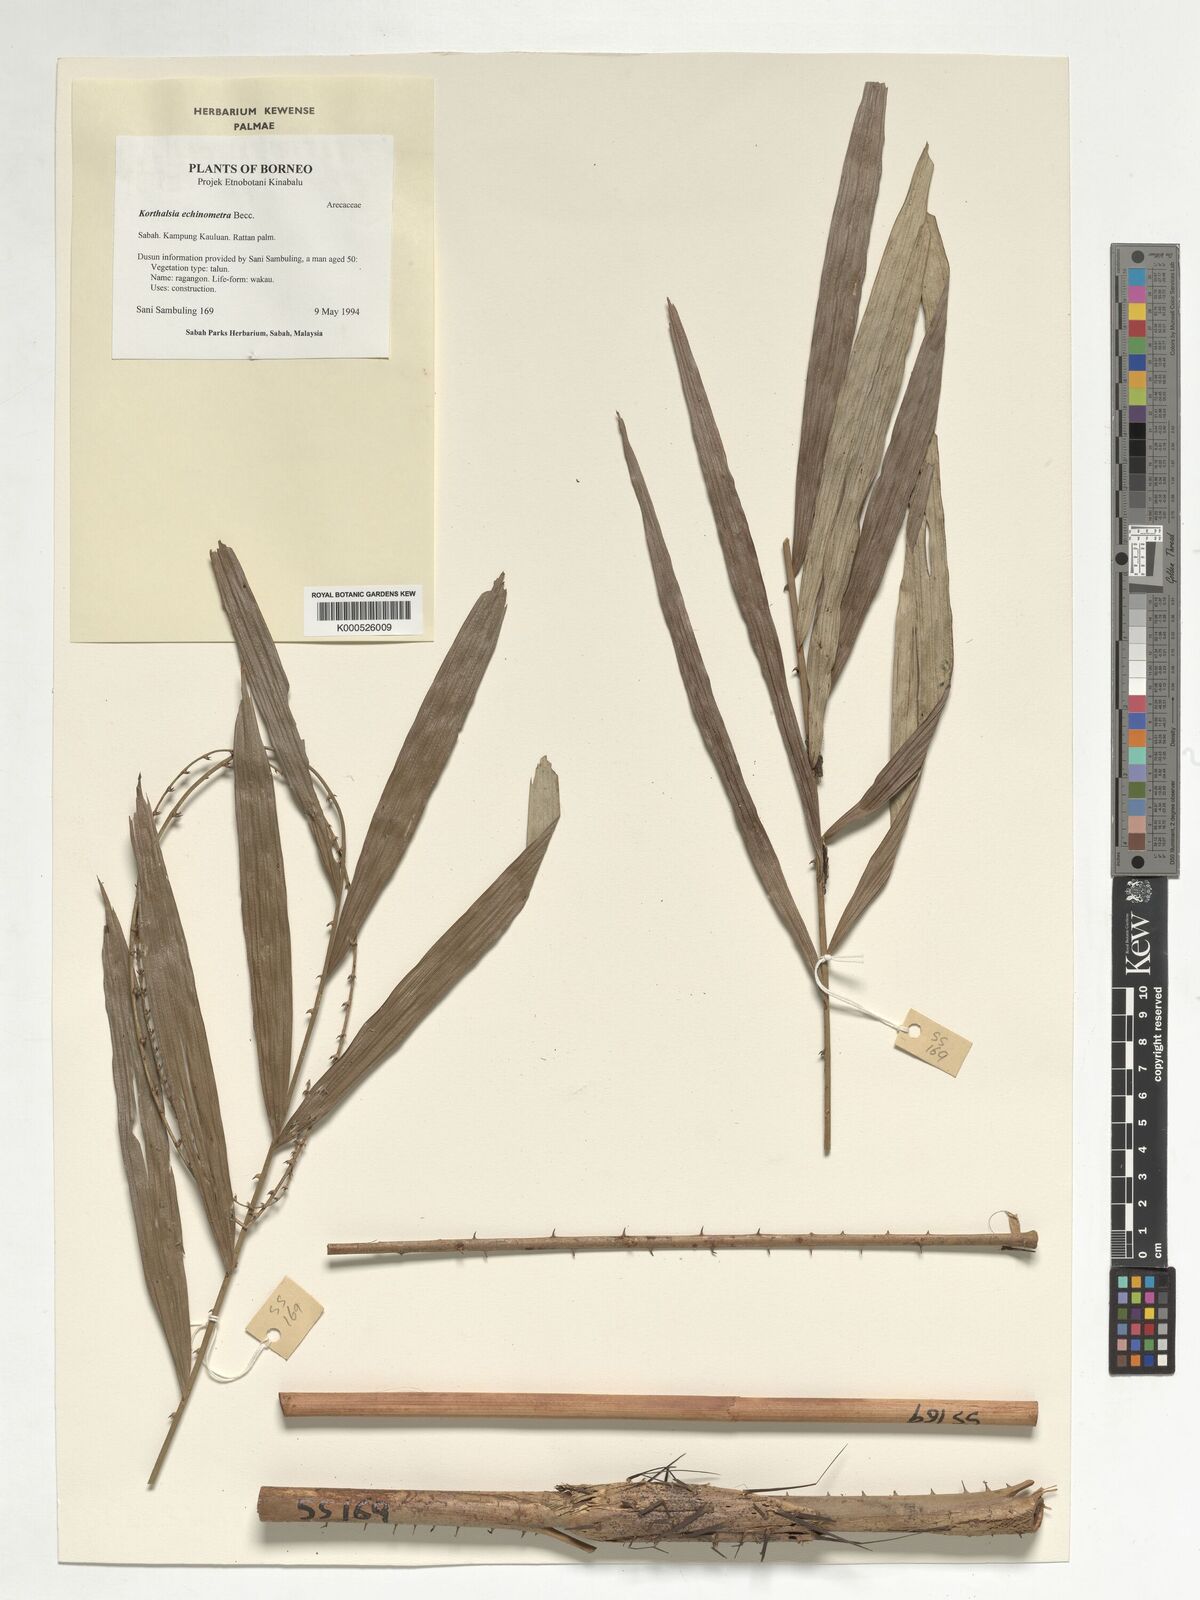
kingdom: Plantae
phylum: Tracheophyta
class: Liliopsida
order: Arecales
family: Arecaceae
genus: Korthalsia
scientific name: Korthalsia echinometra
